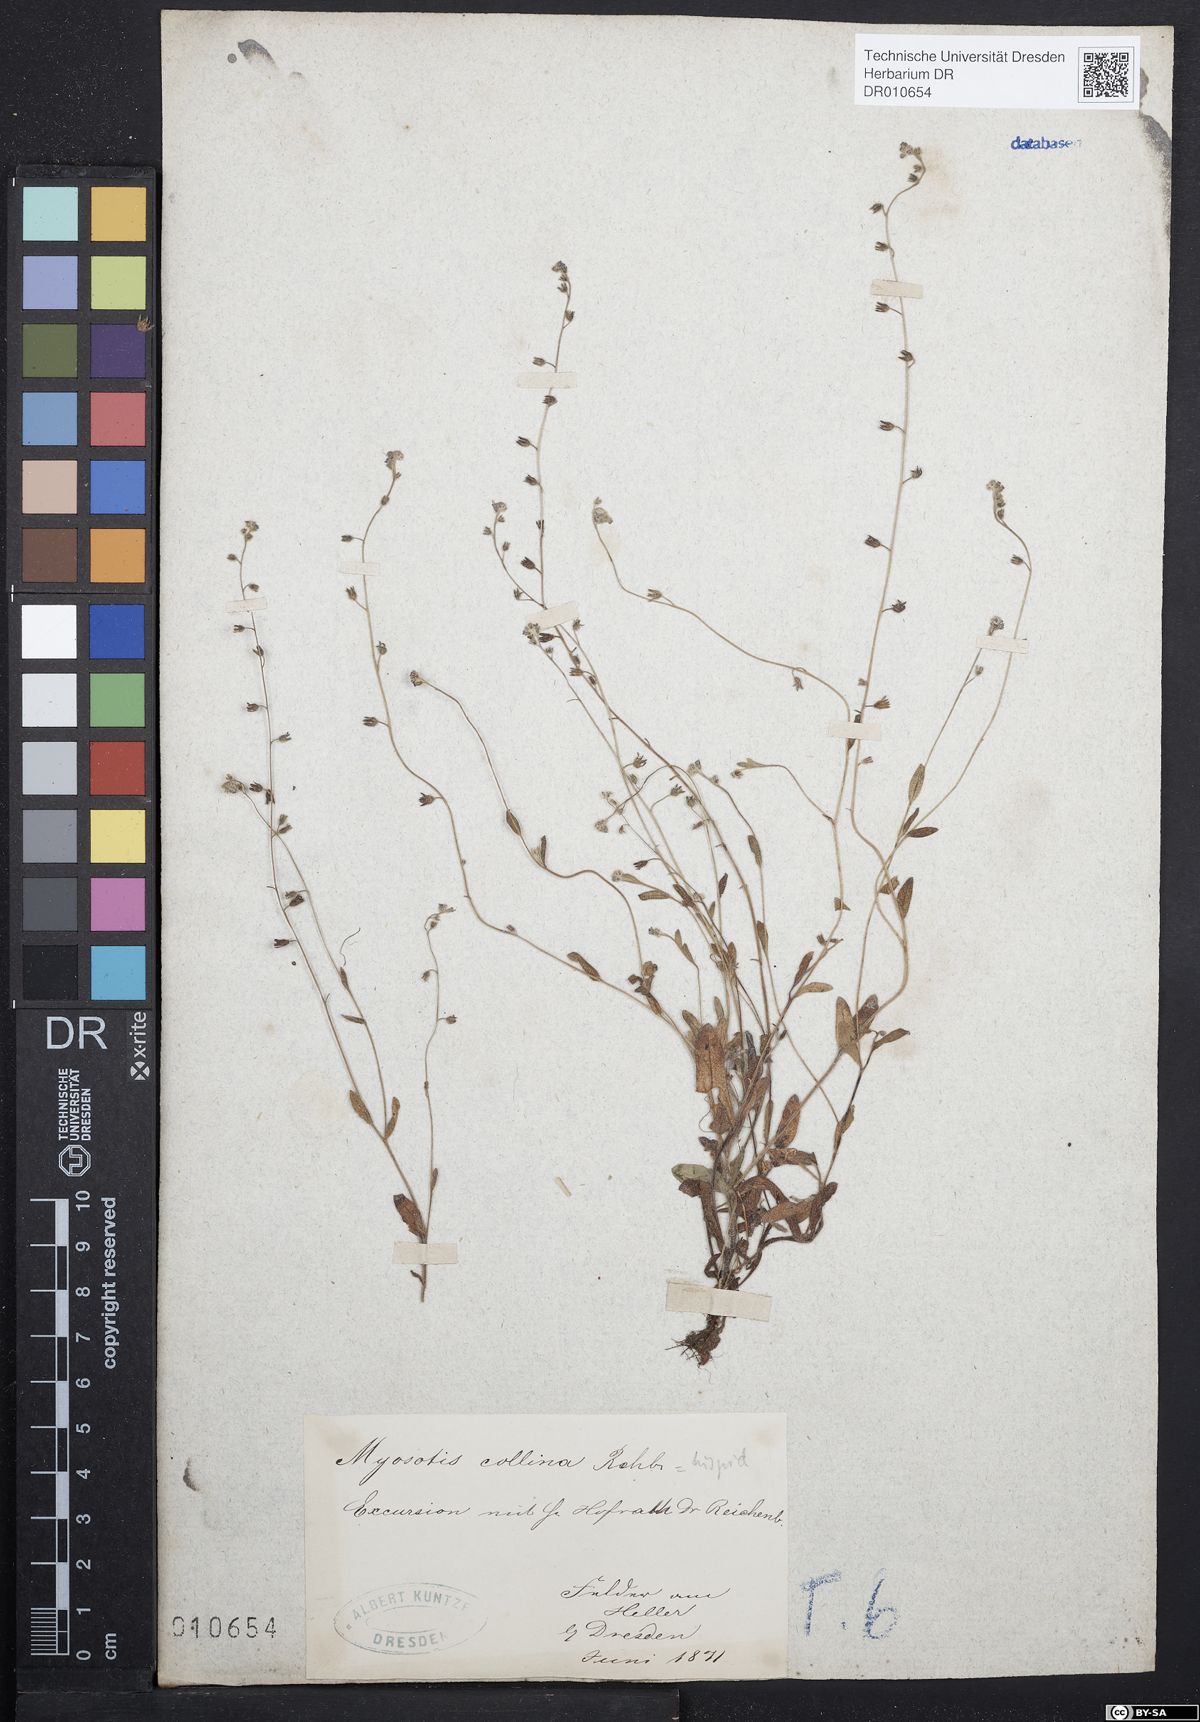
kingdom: Plantae
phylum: Tracheophyta
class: Magnoliopsida
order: Boraginales
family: Boraginaceae
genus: Myosotis
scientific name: Myosotis ramosissima
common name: Early forget-me-not
